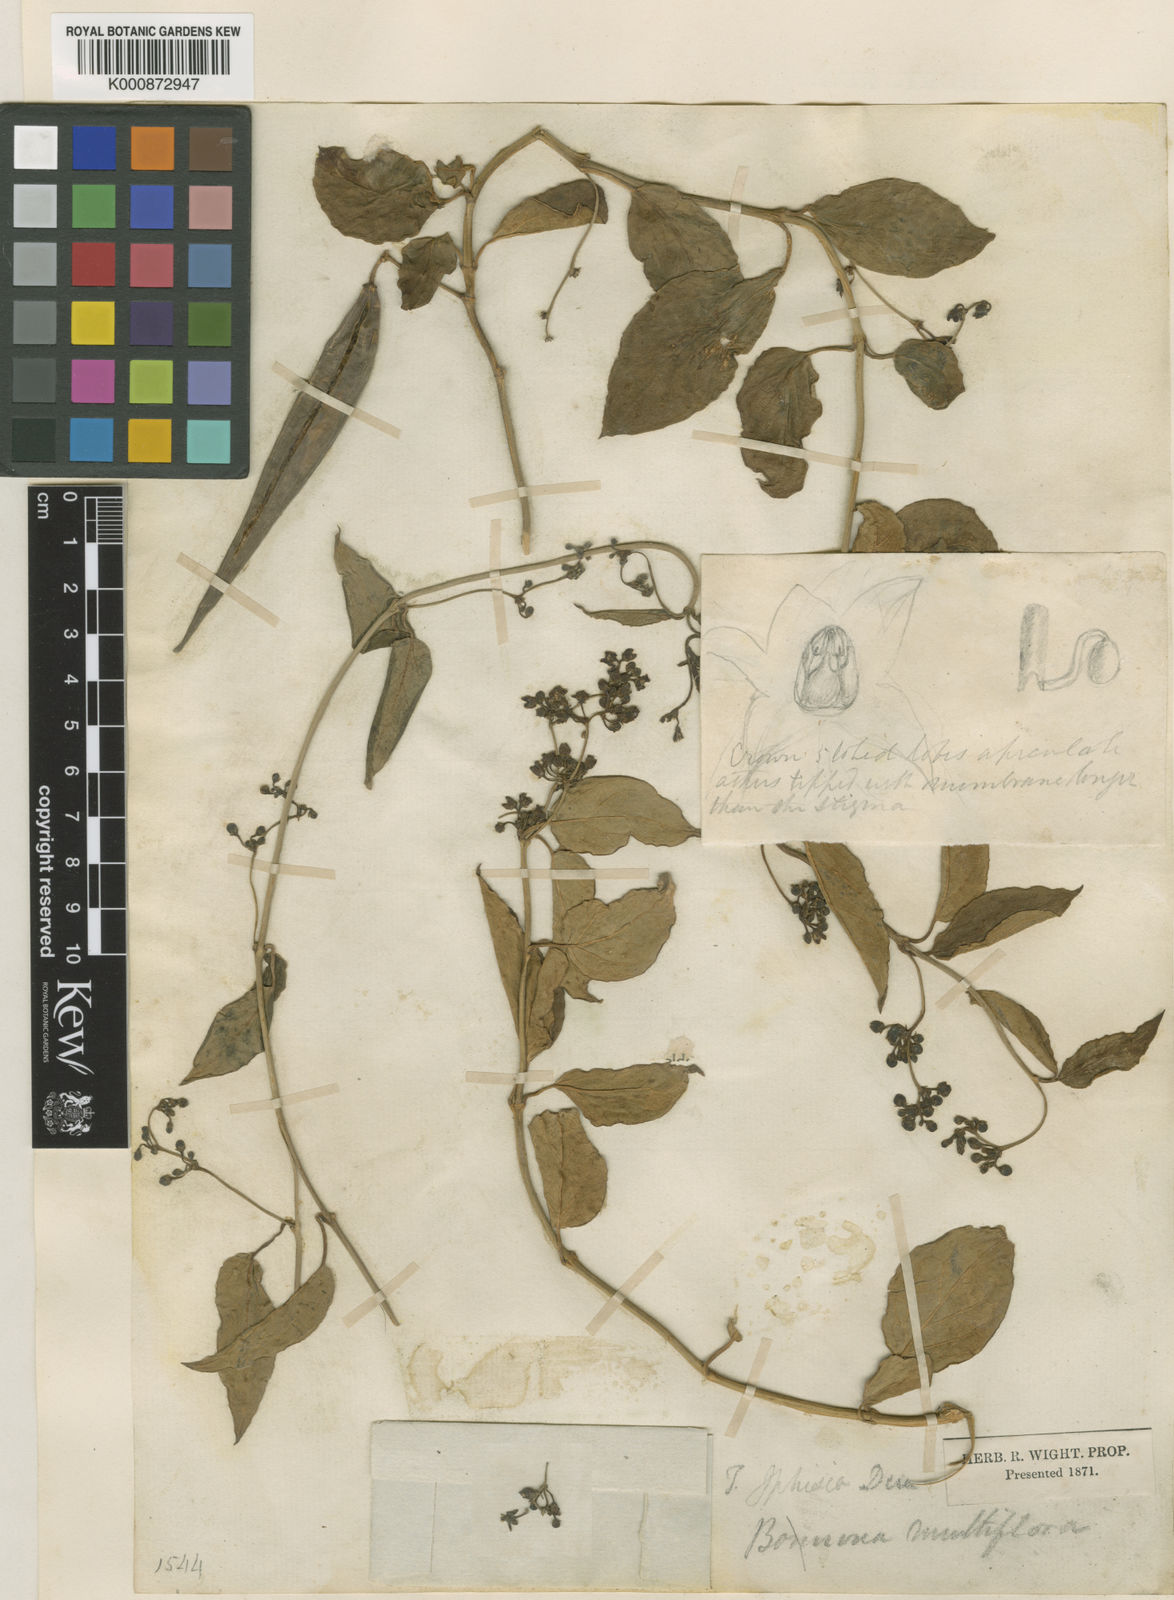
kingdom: Plantae
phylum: Tracheophyta
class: Magnoliopsida
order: Gentianales
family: Apocynaceae
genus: Vincetoxicum
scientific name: Vincetoxicum iphisia
